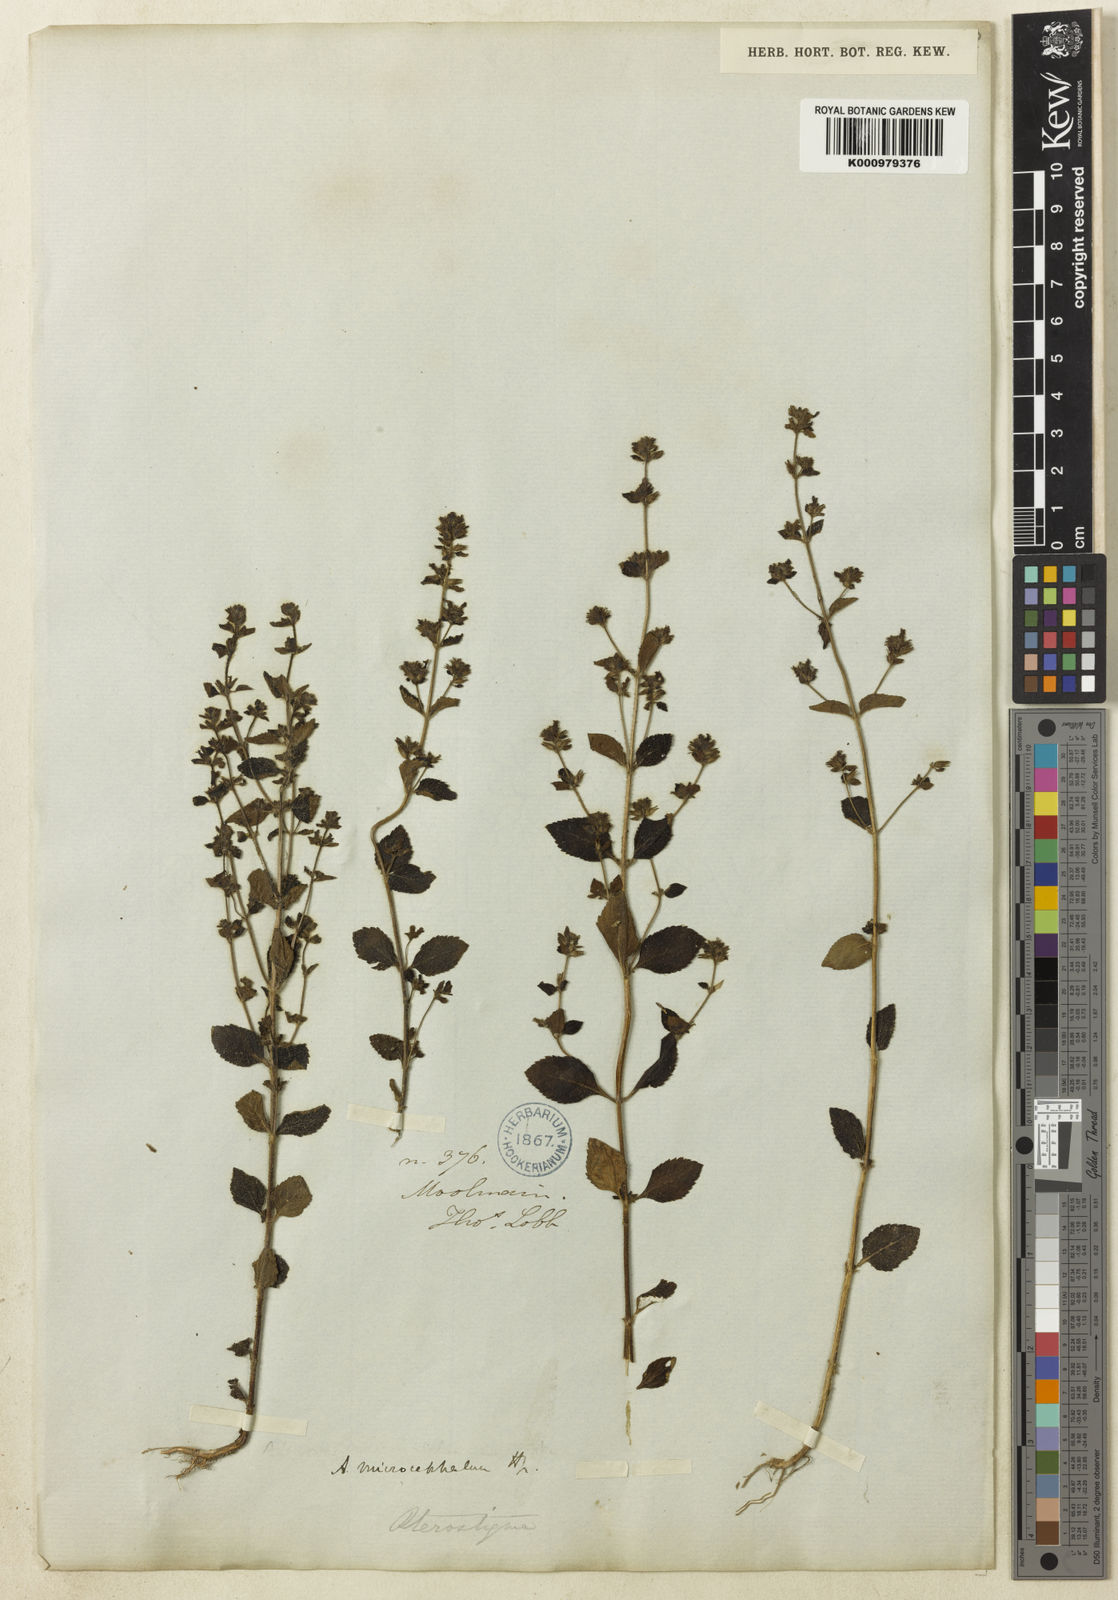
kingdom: Plantae
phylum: Tracheophyta
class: Magnoliopsida
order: Lamiales
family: Plantaginaceae
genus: Adenosma
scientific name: Adenosma microcephala
